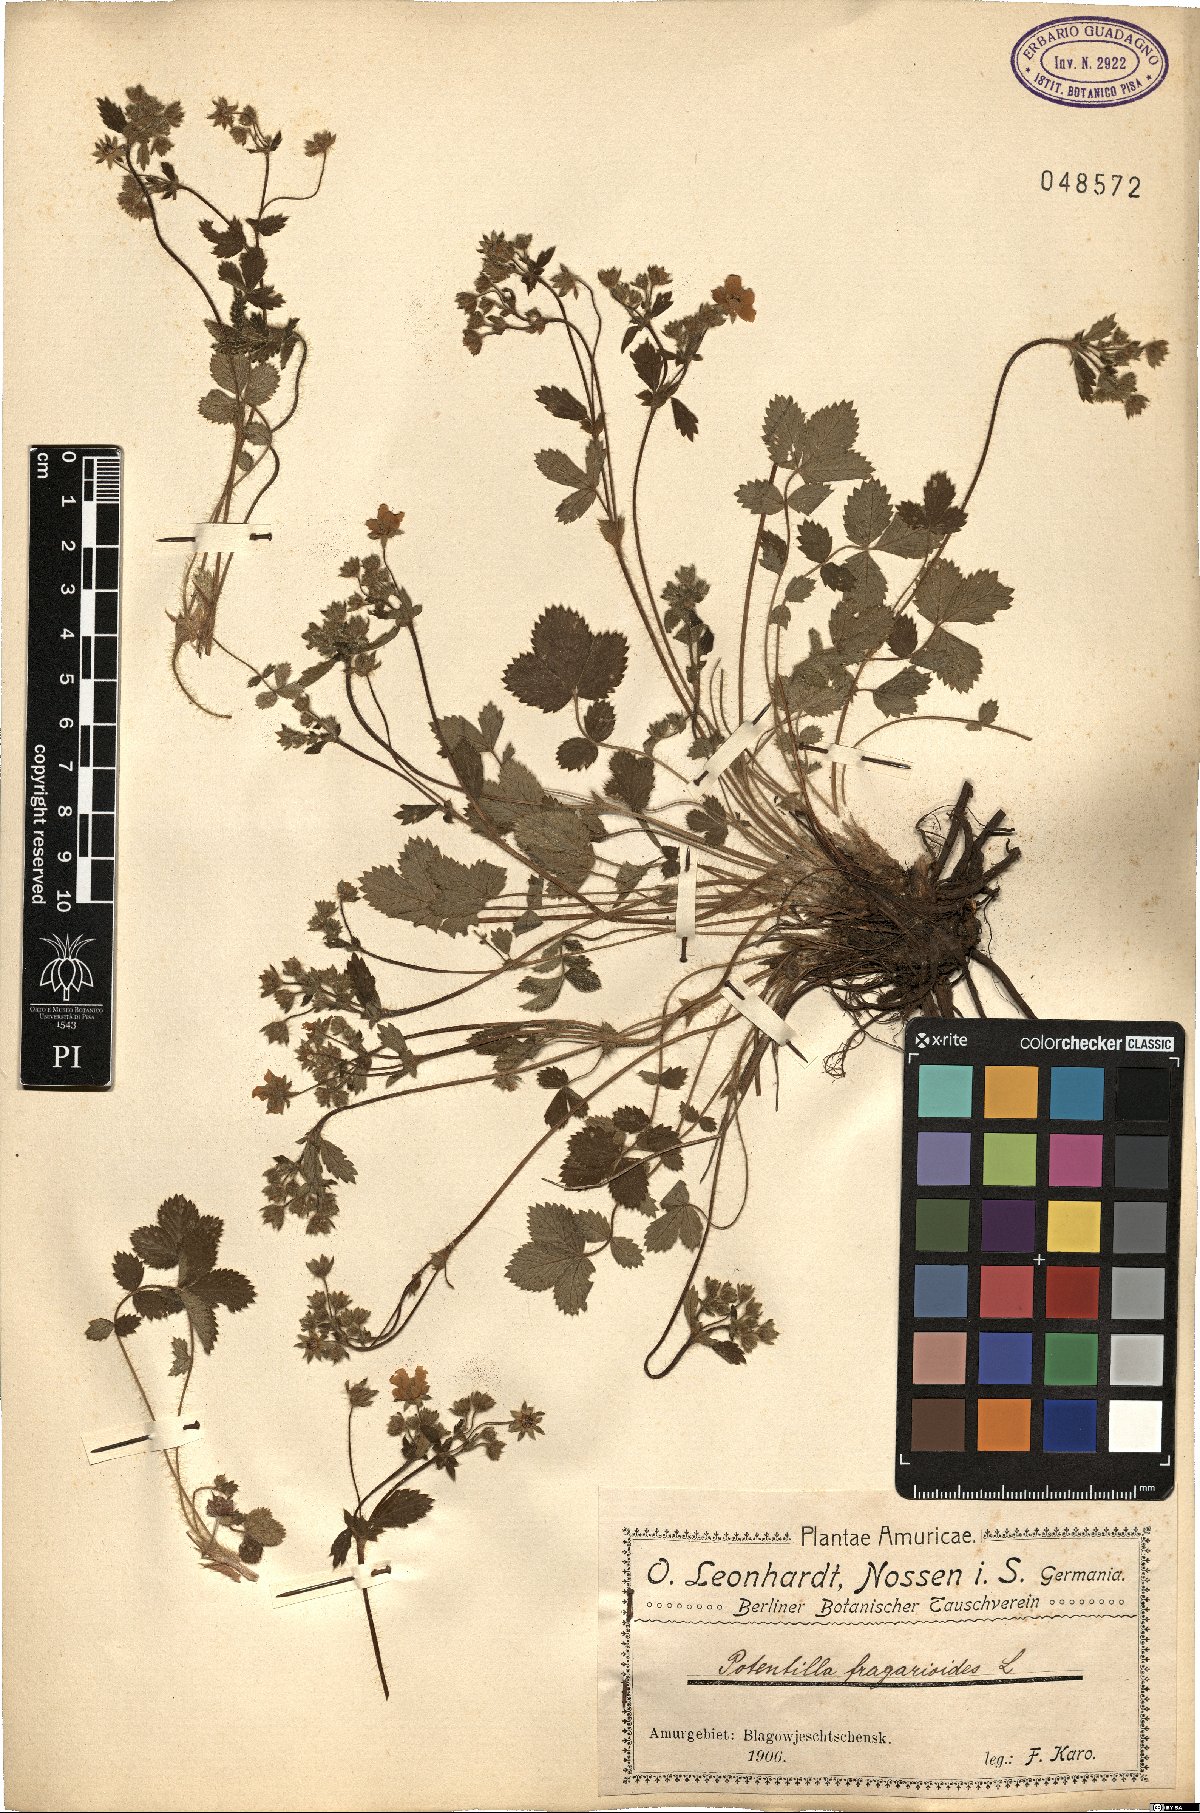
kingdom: Plantae
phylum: Tracheophyta
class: Magnoliopsida
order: Rosales
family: Rosaceae
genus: Potentilla
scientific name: Potentilla fragarioides
